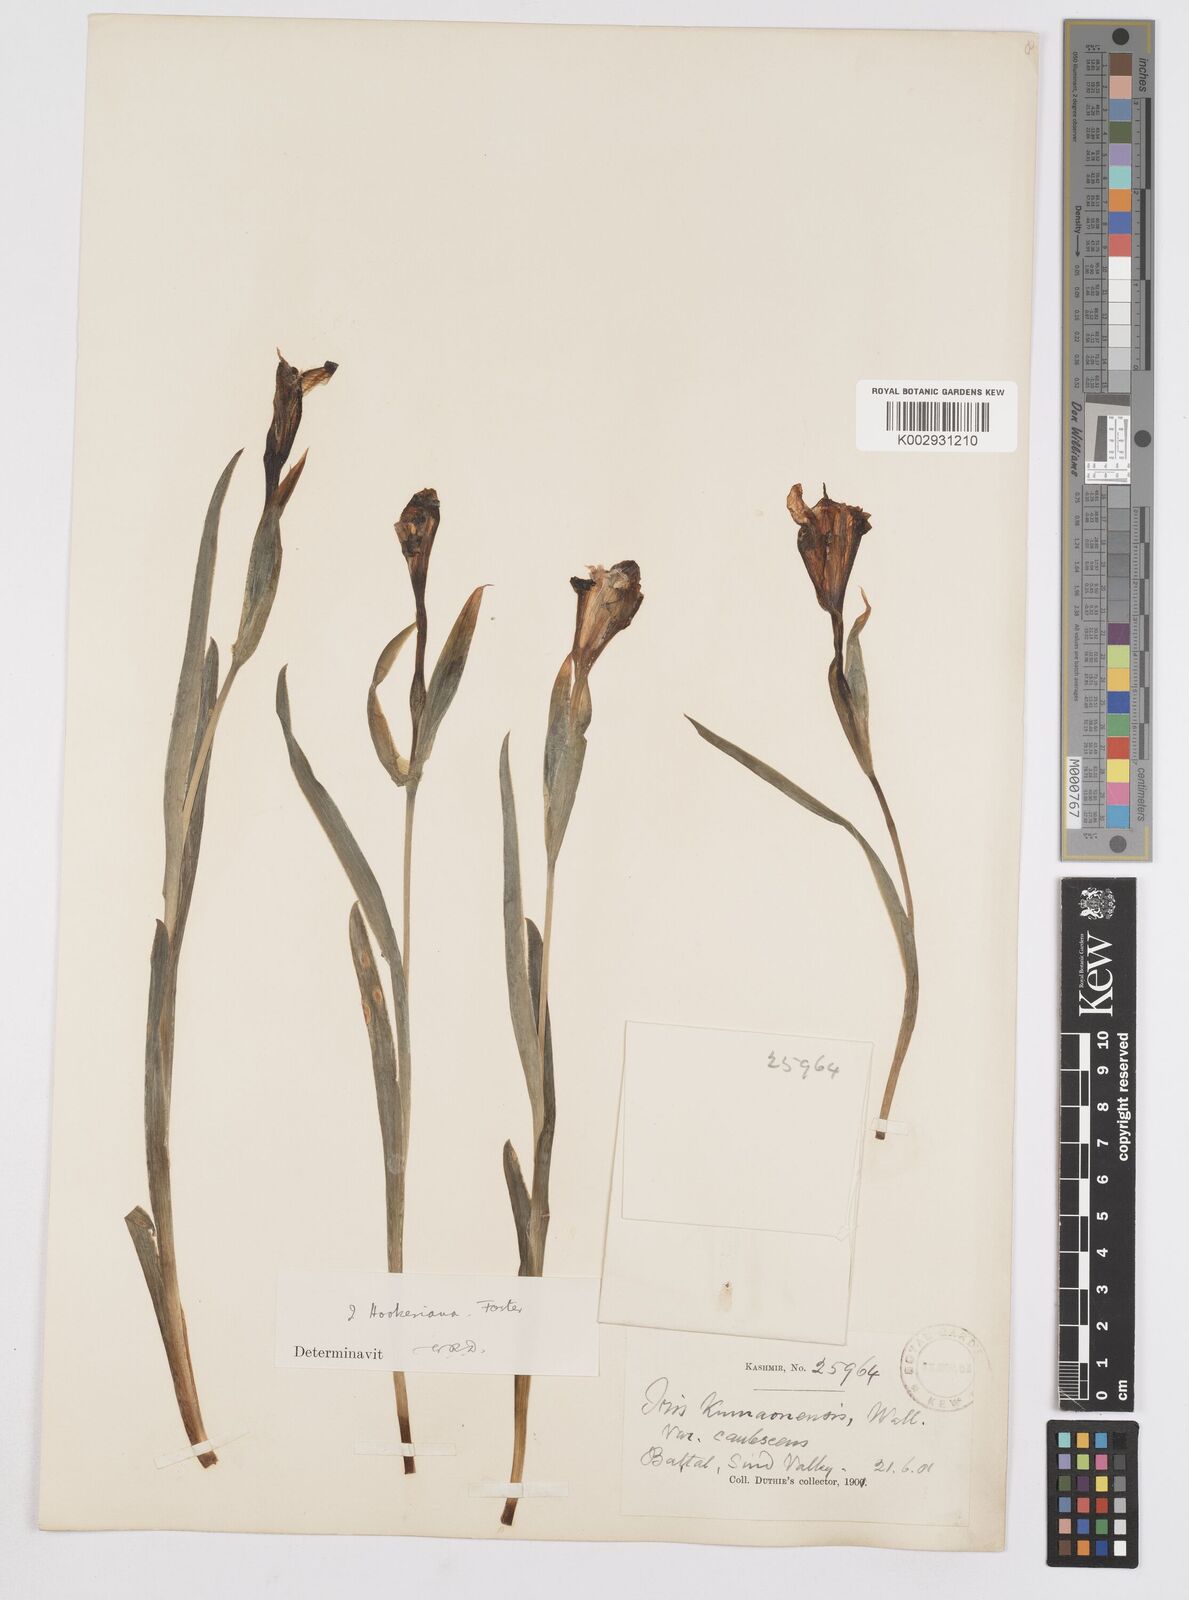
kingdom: Plantae
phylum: Tracheophyta
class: Liliopsida
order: Asparagales
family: Iridaceae
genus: Iris
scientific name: Iris hookeriana
